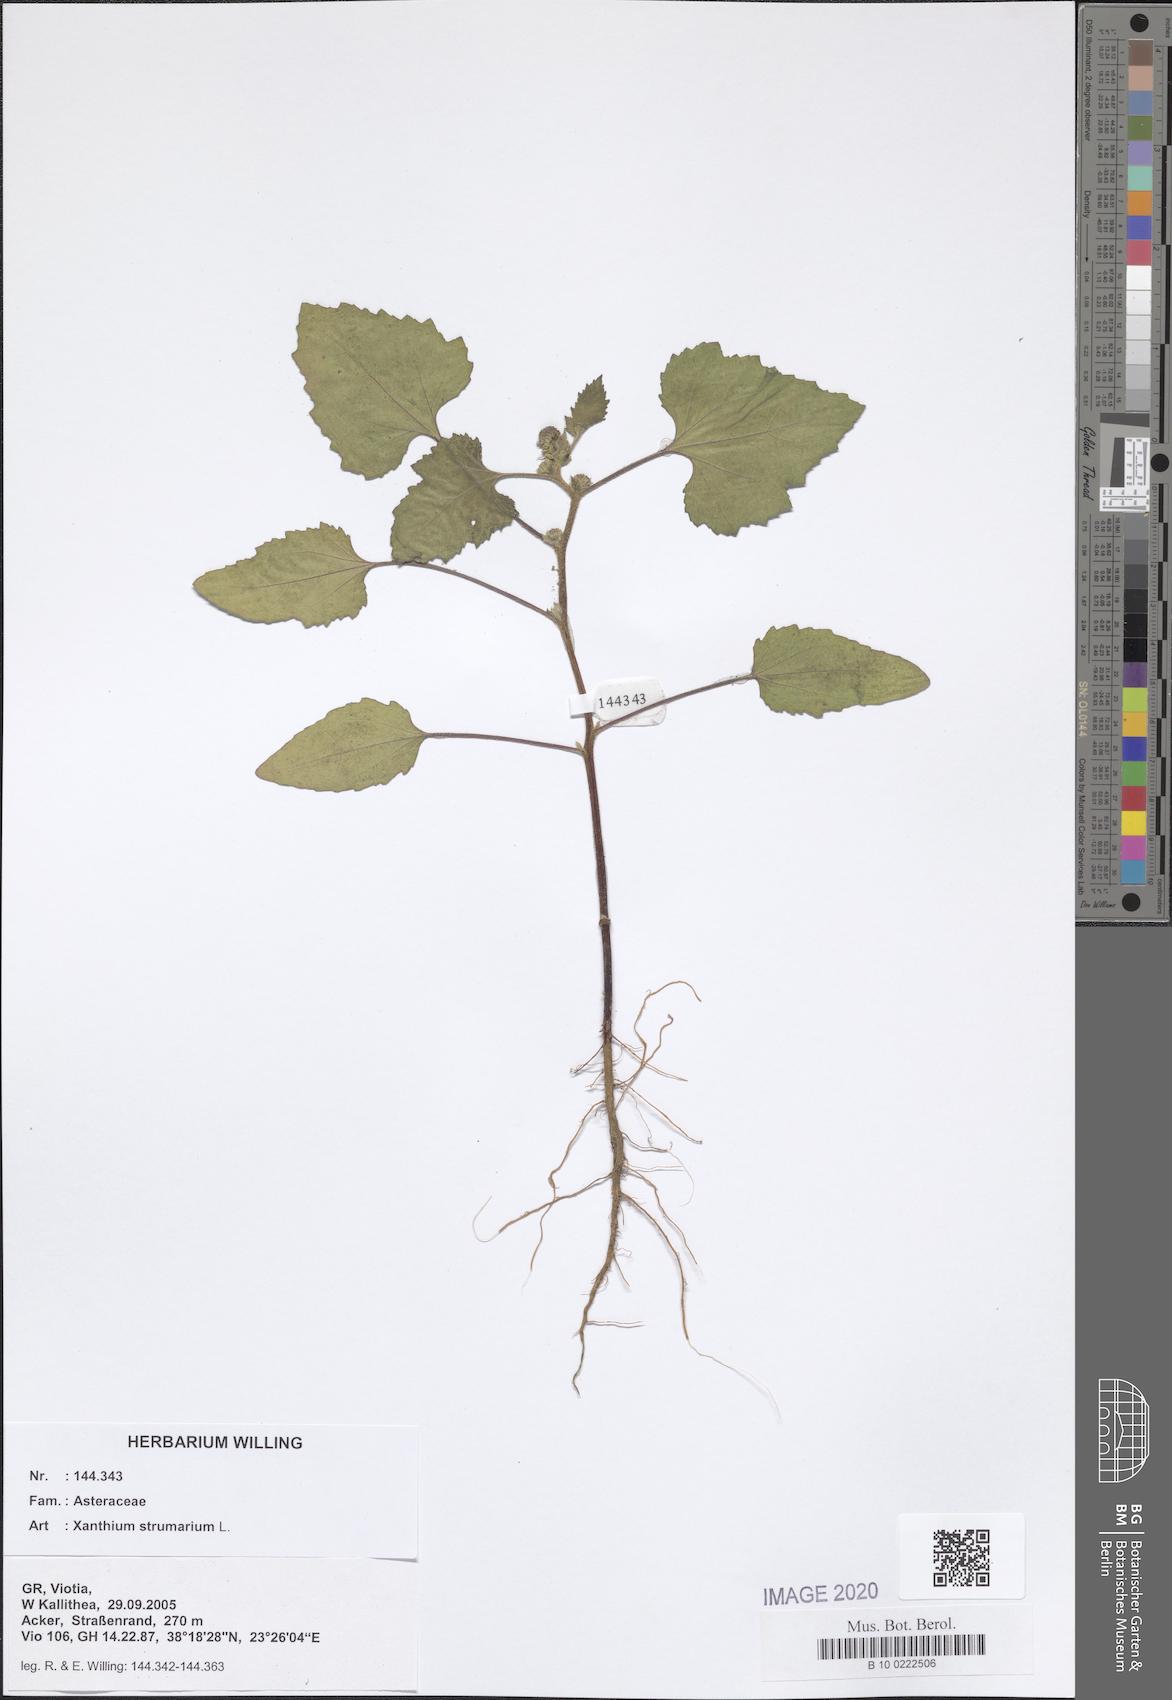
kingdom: Plantae
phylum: Tracheophyta
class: Magnoliopsida
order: Asterales
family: Asteraceae
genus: Xanthium
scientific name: Xanthium strumarium
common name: Rough cocklebur
